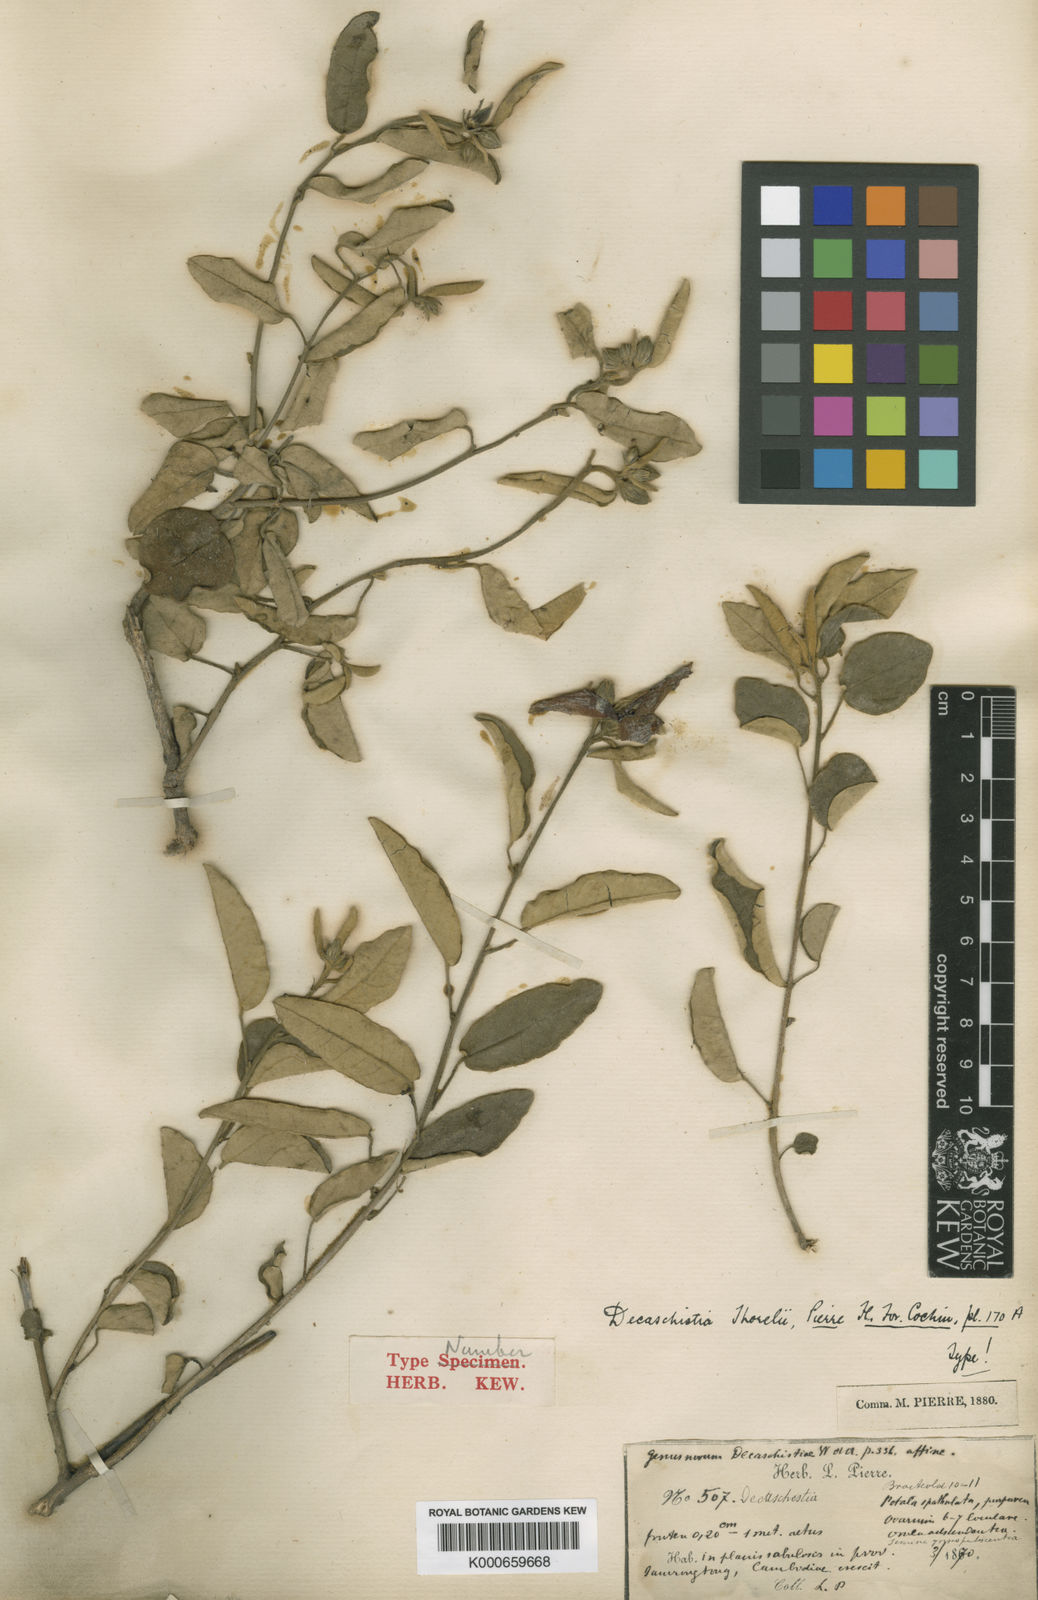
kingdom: Plantae
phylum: Tracheophyta
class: Magnoliopsida
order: Malvales
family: Malvaceae
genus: Decaschistia
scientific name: Decaschistia parviflora
